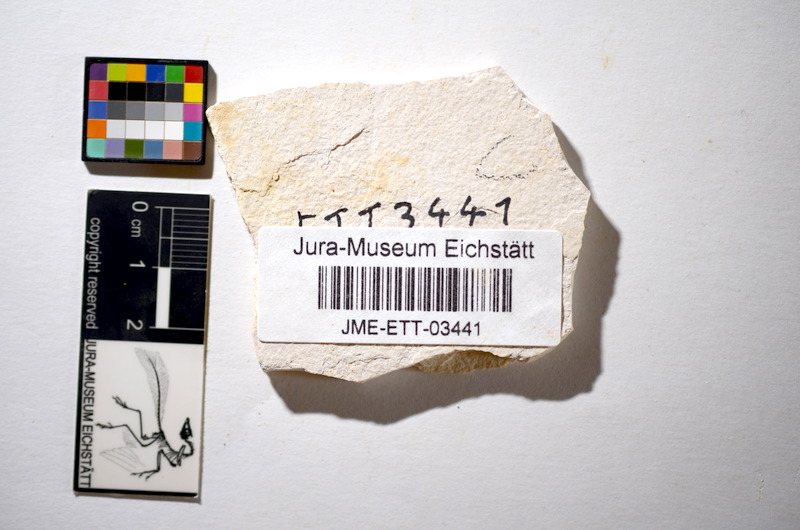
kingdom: Animalia
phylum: Chordata
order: Salmoniformes
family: Orthogonikleithridae
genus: Orthogonikleithrus
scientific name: Orthogonikleithrus hoelli
